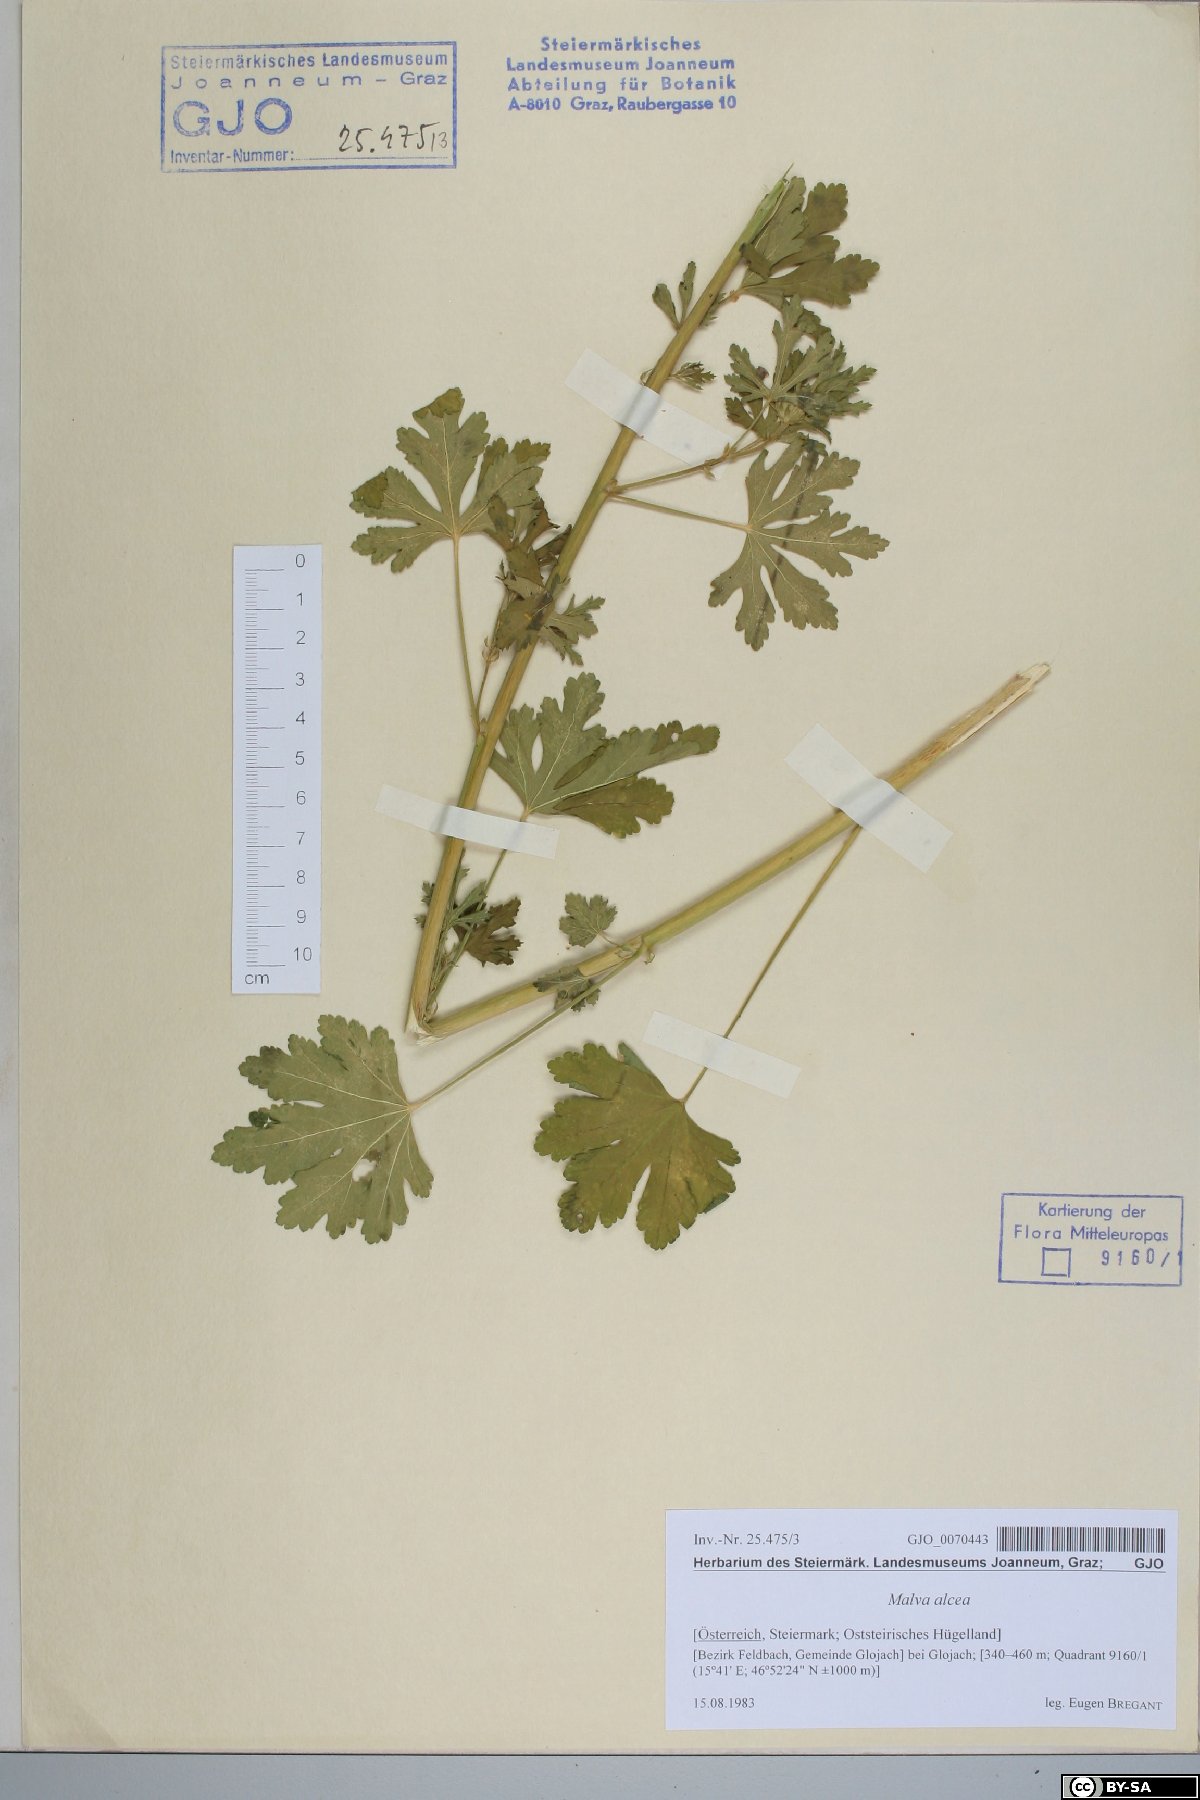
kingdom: Plantae
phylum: Tracheophyta
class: Magnoliopsida
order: Malvales
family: Malvaceae
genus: Malva
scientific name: Malva alcea
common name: Greater musk-mallow
